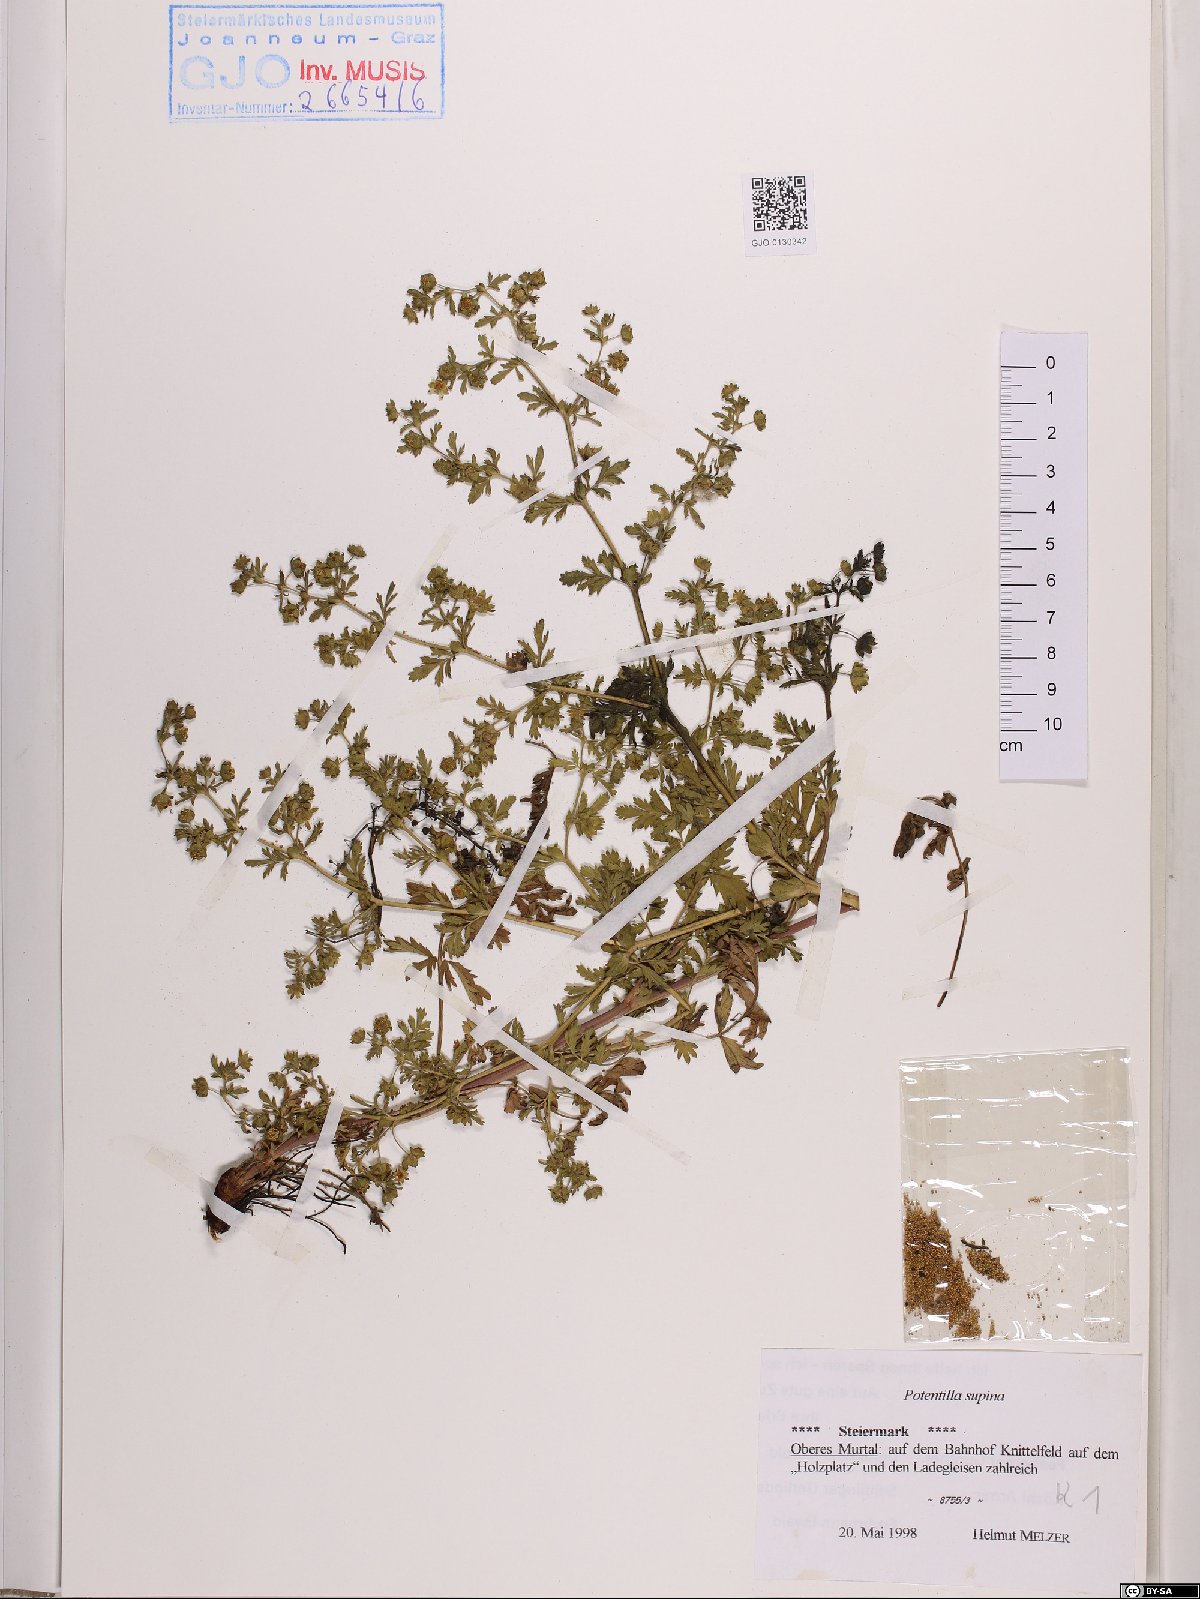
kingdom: Plantae
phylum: Tracheophyta
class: Magnoliopsida
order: Rosales
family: Rosaceae
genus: Potentilla
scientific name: Potentilla supina
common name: Prostrate cinquefoil
